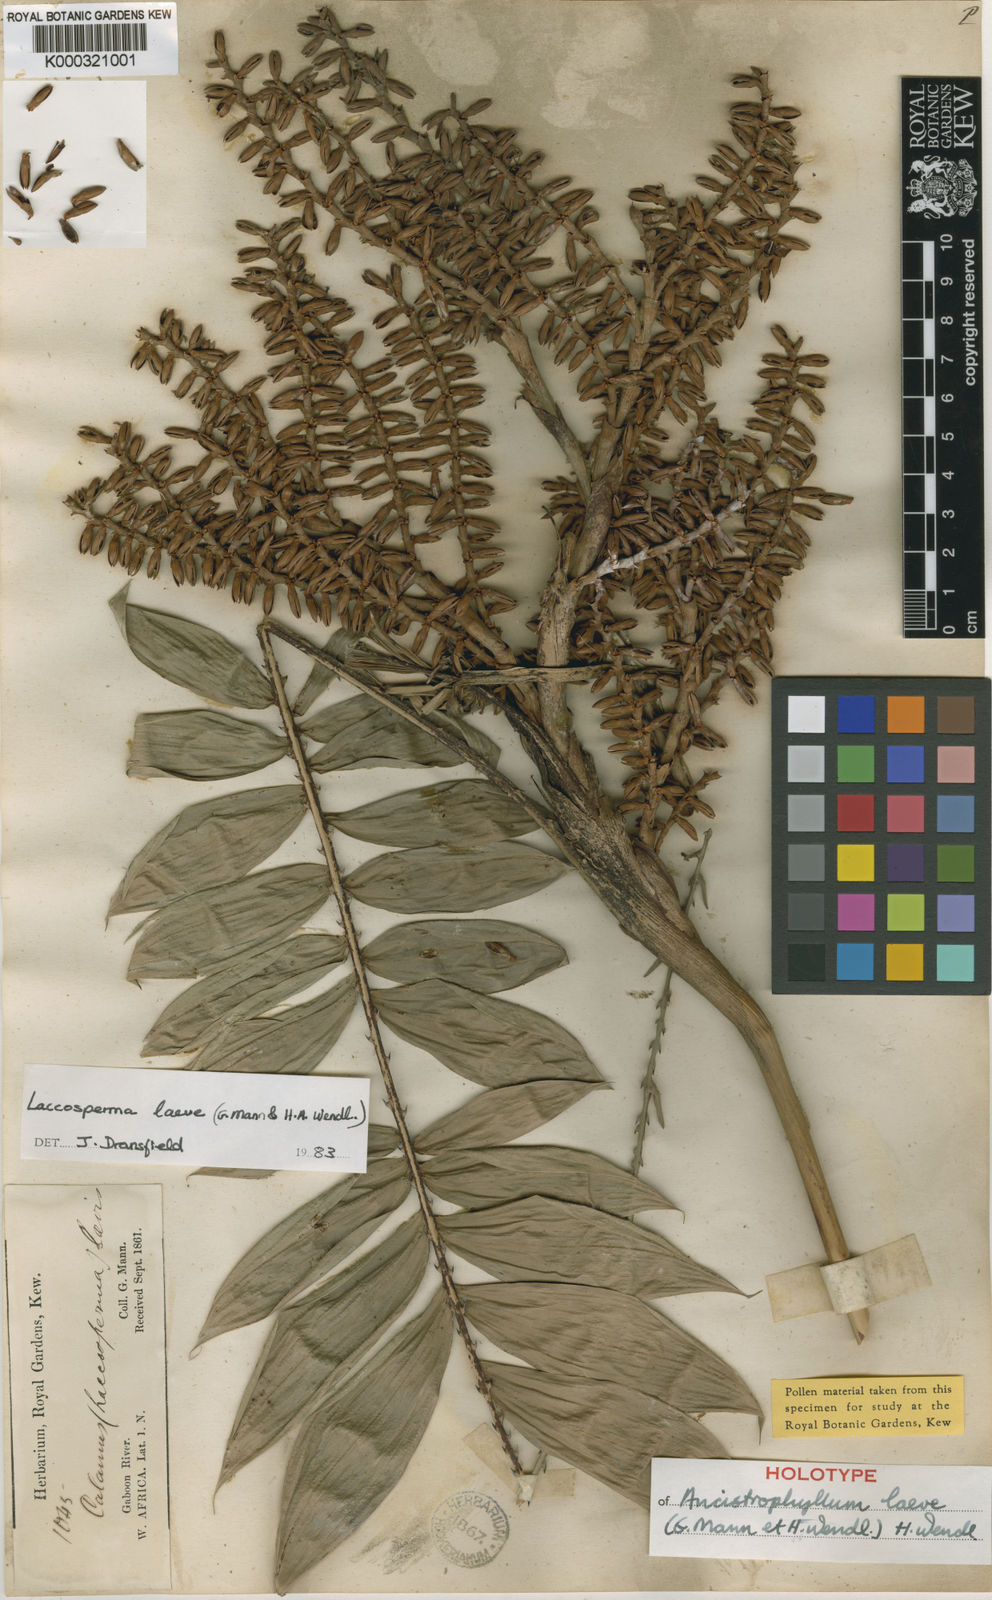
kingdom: Plantae
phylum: Tracheophyta
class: Liliopsida
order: Arecales
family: Arecaceae
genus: Laccosperma
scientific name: Laccosperma laeve
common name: Rattan
